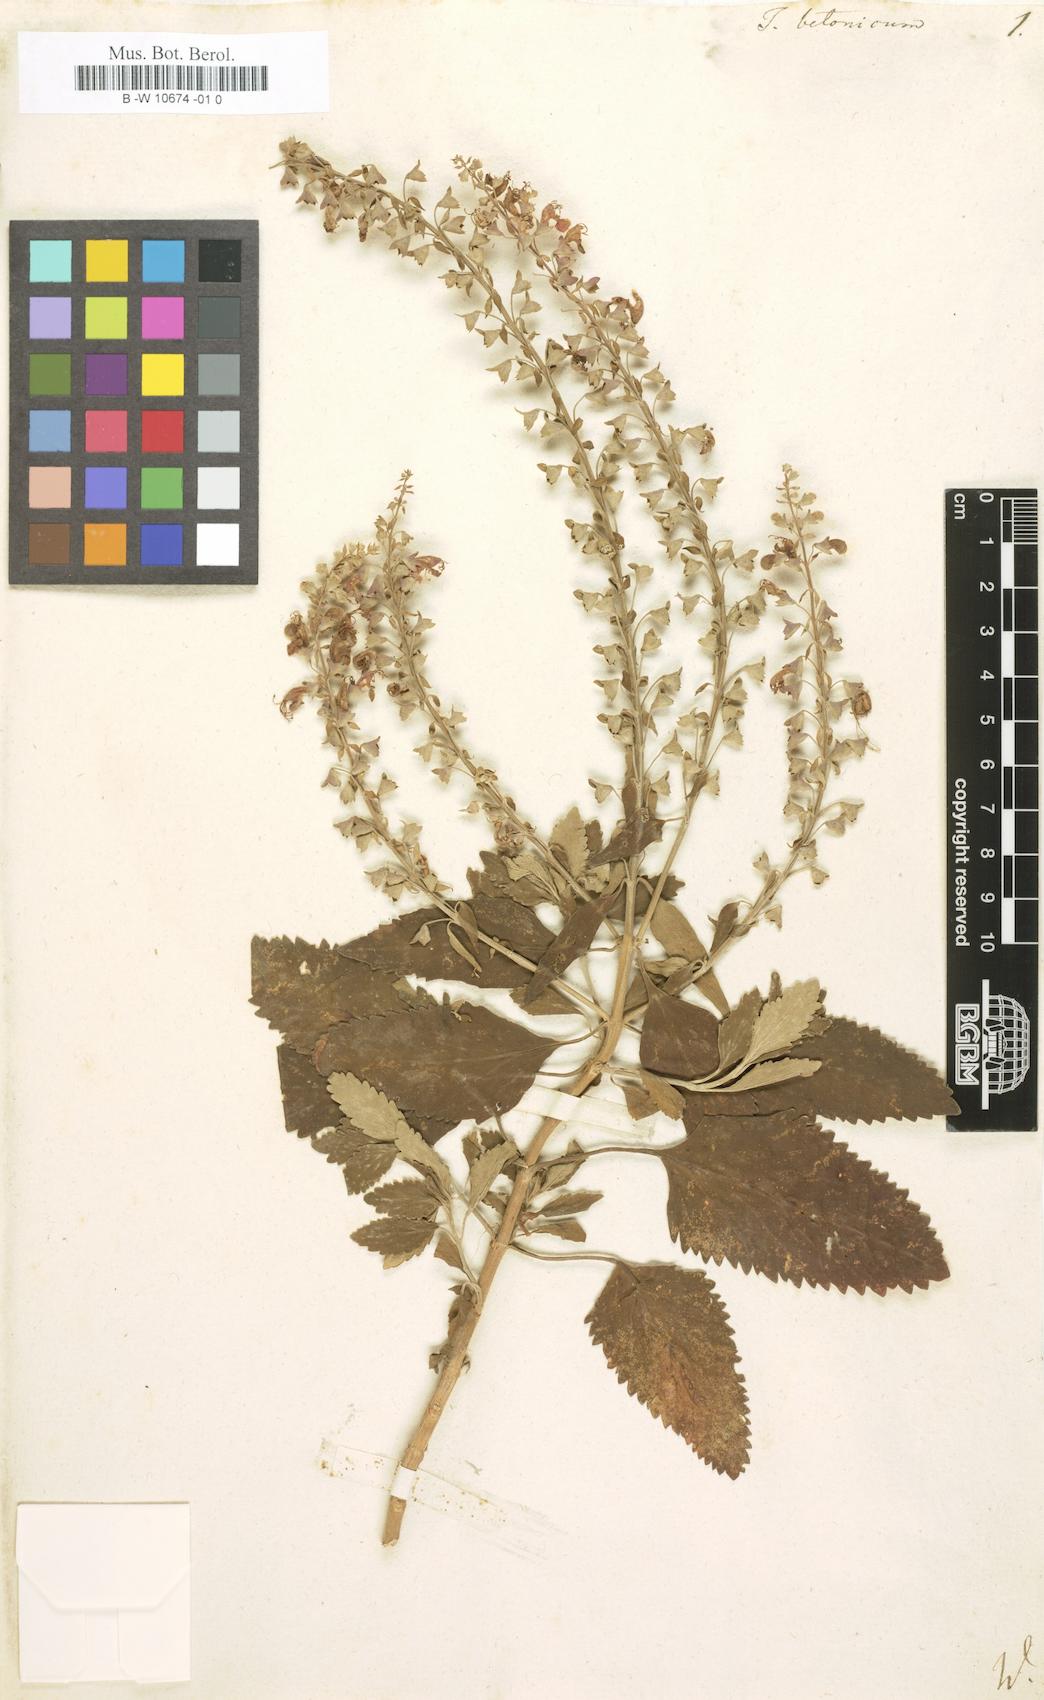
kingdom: Plantae
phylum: Tracheophyta
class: Magnoliopsida
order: Lamiales
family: Lamiaceae
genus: Teucrium
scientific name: Teucrium betonicum
